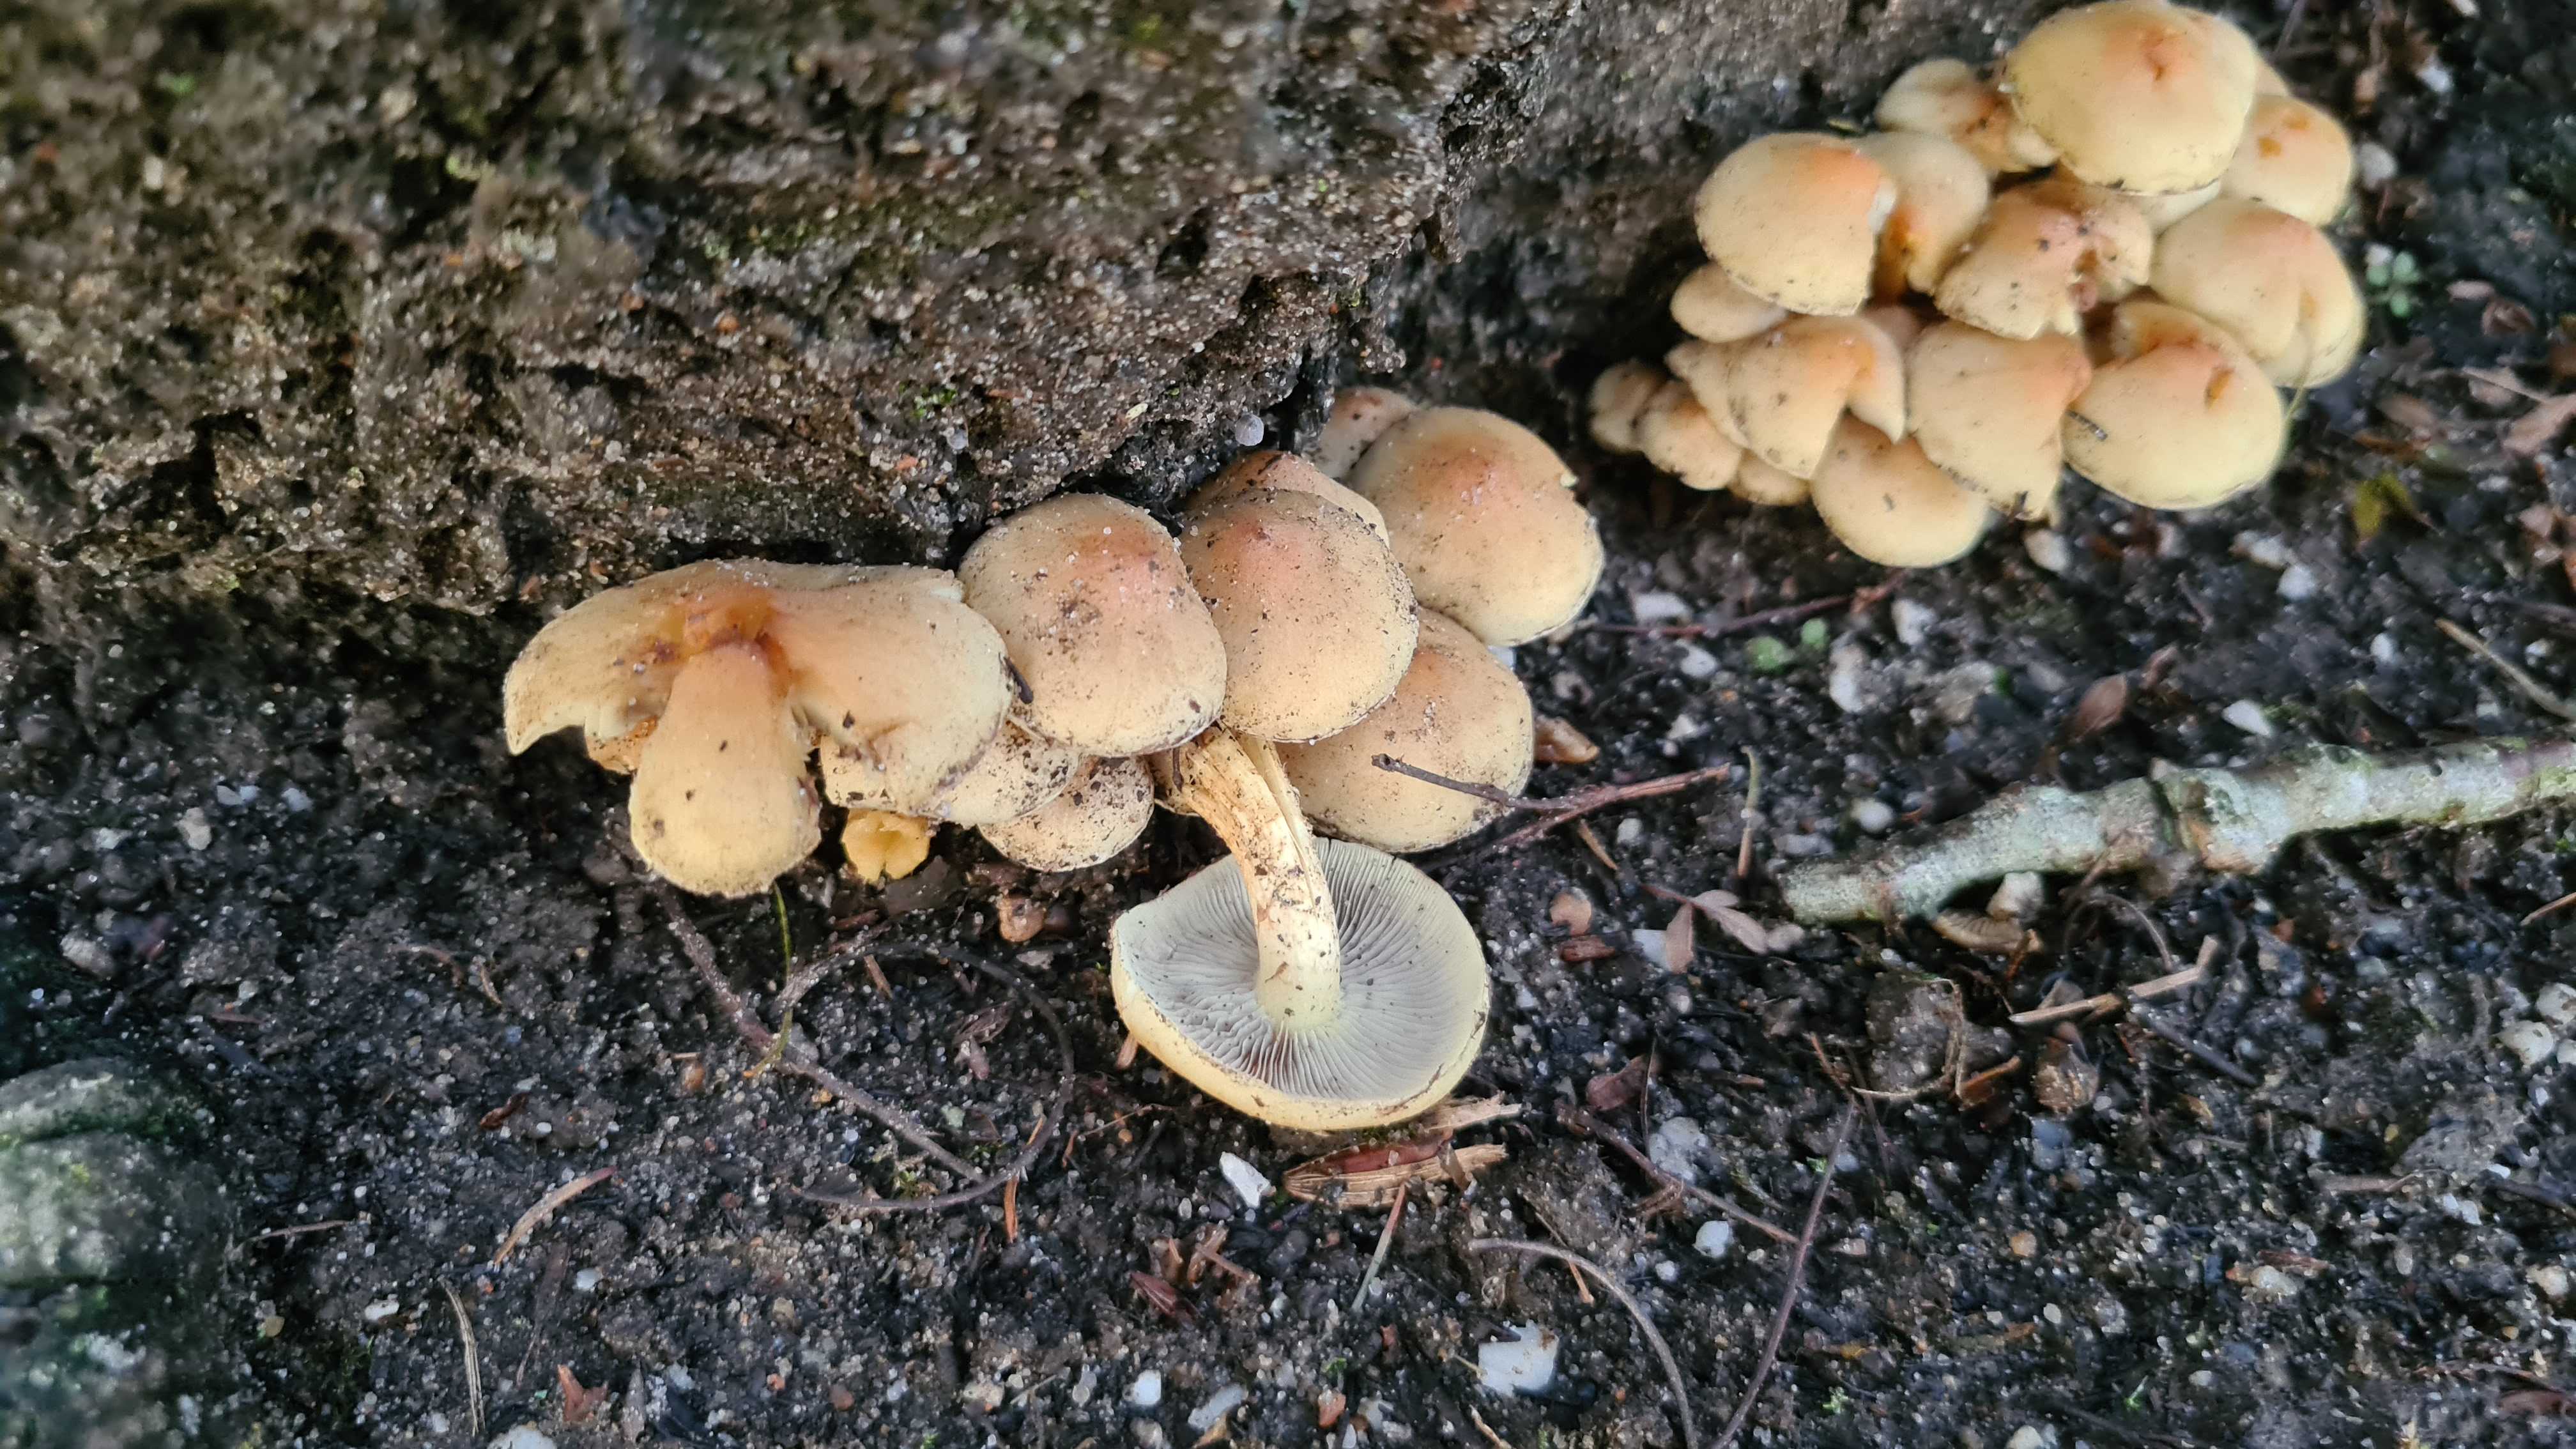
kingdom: Fungi
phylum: Basidiomycota
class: Agaricomycetes
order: Agaricales
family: Strophariaceae
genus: Hypholoma
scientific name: Hypholoma fasciculare
